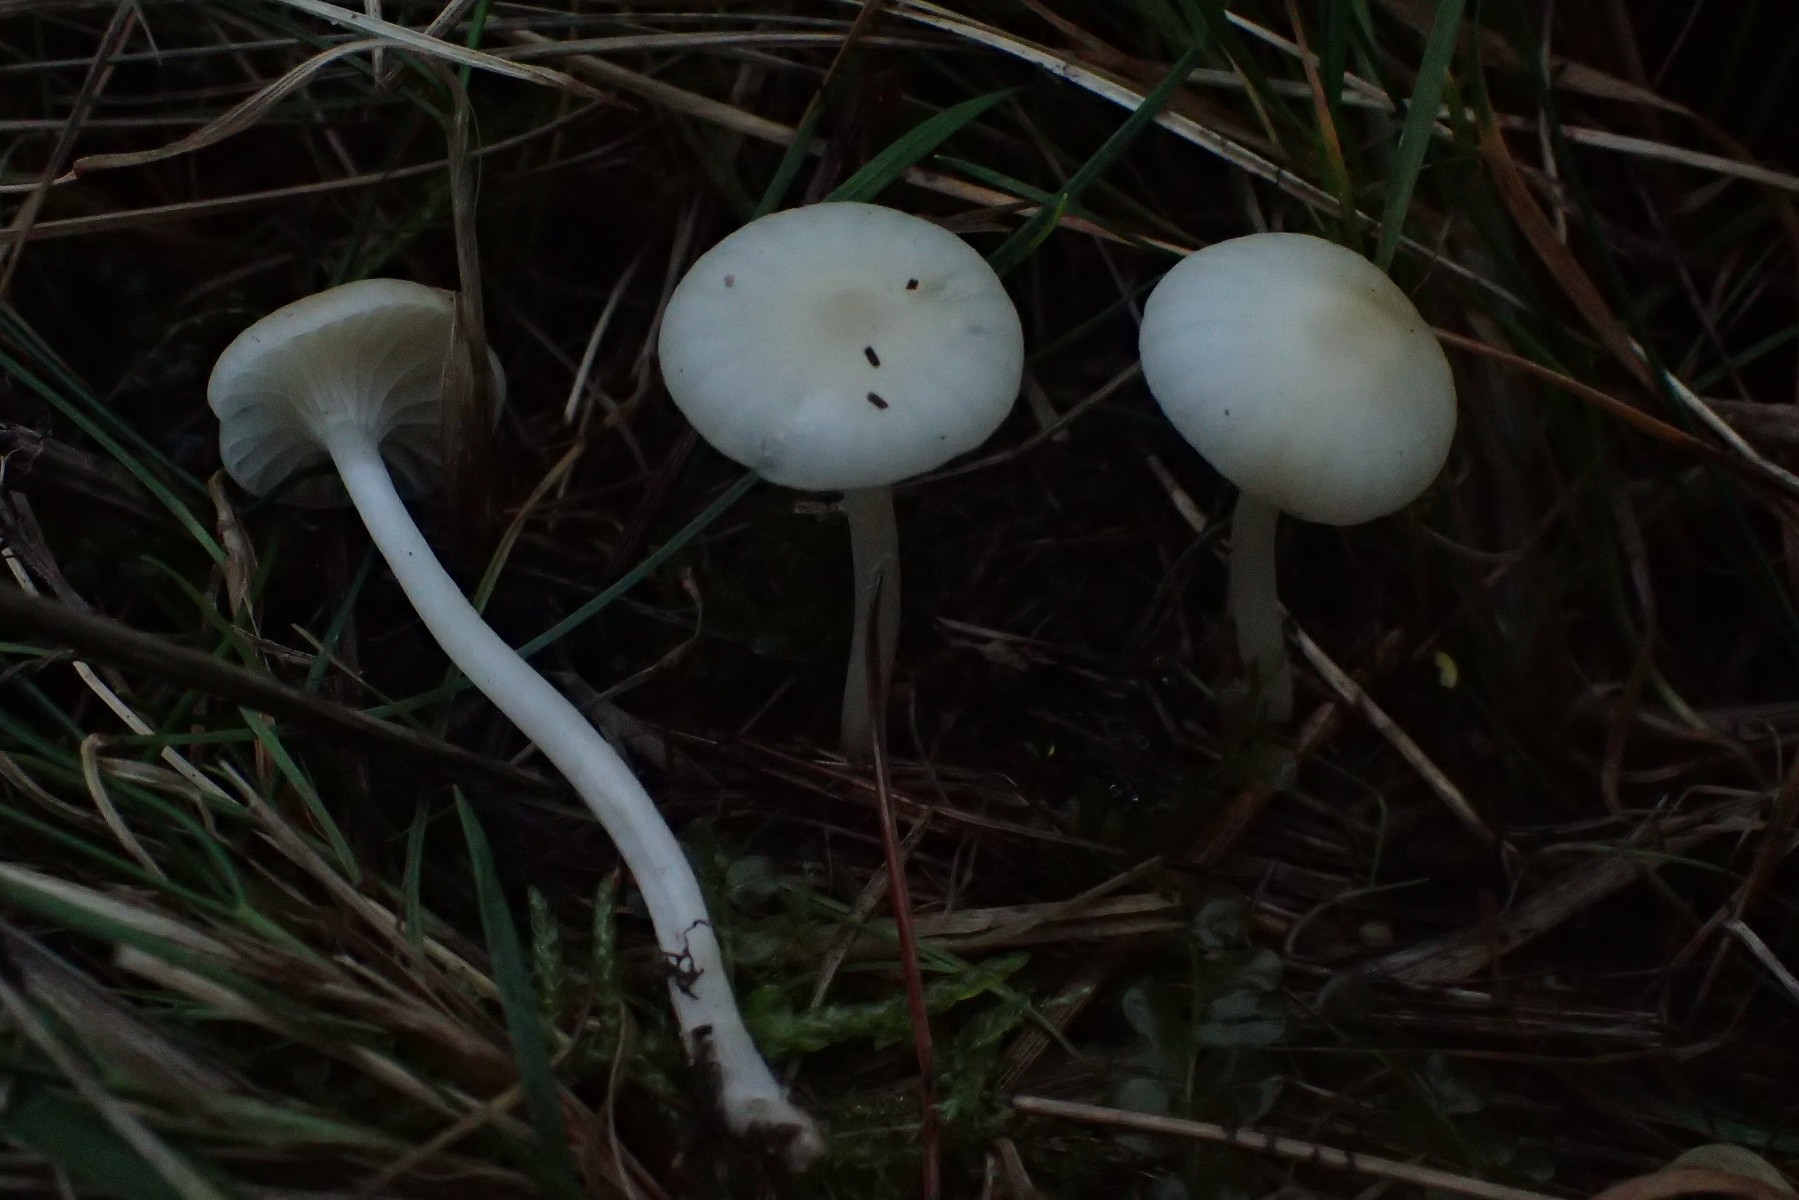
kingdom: Fungi
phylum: Basidiomycota
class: Agaricomycetes
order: Agaricales
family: Hygrophoraceae
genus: Cuphophyllus
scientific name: Cuphophyllus virgineus
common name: snehvid vokshat
